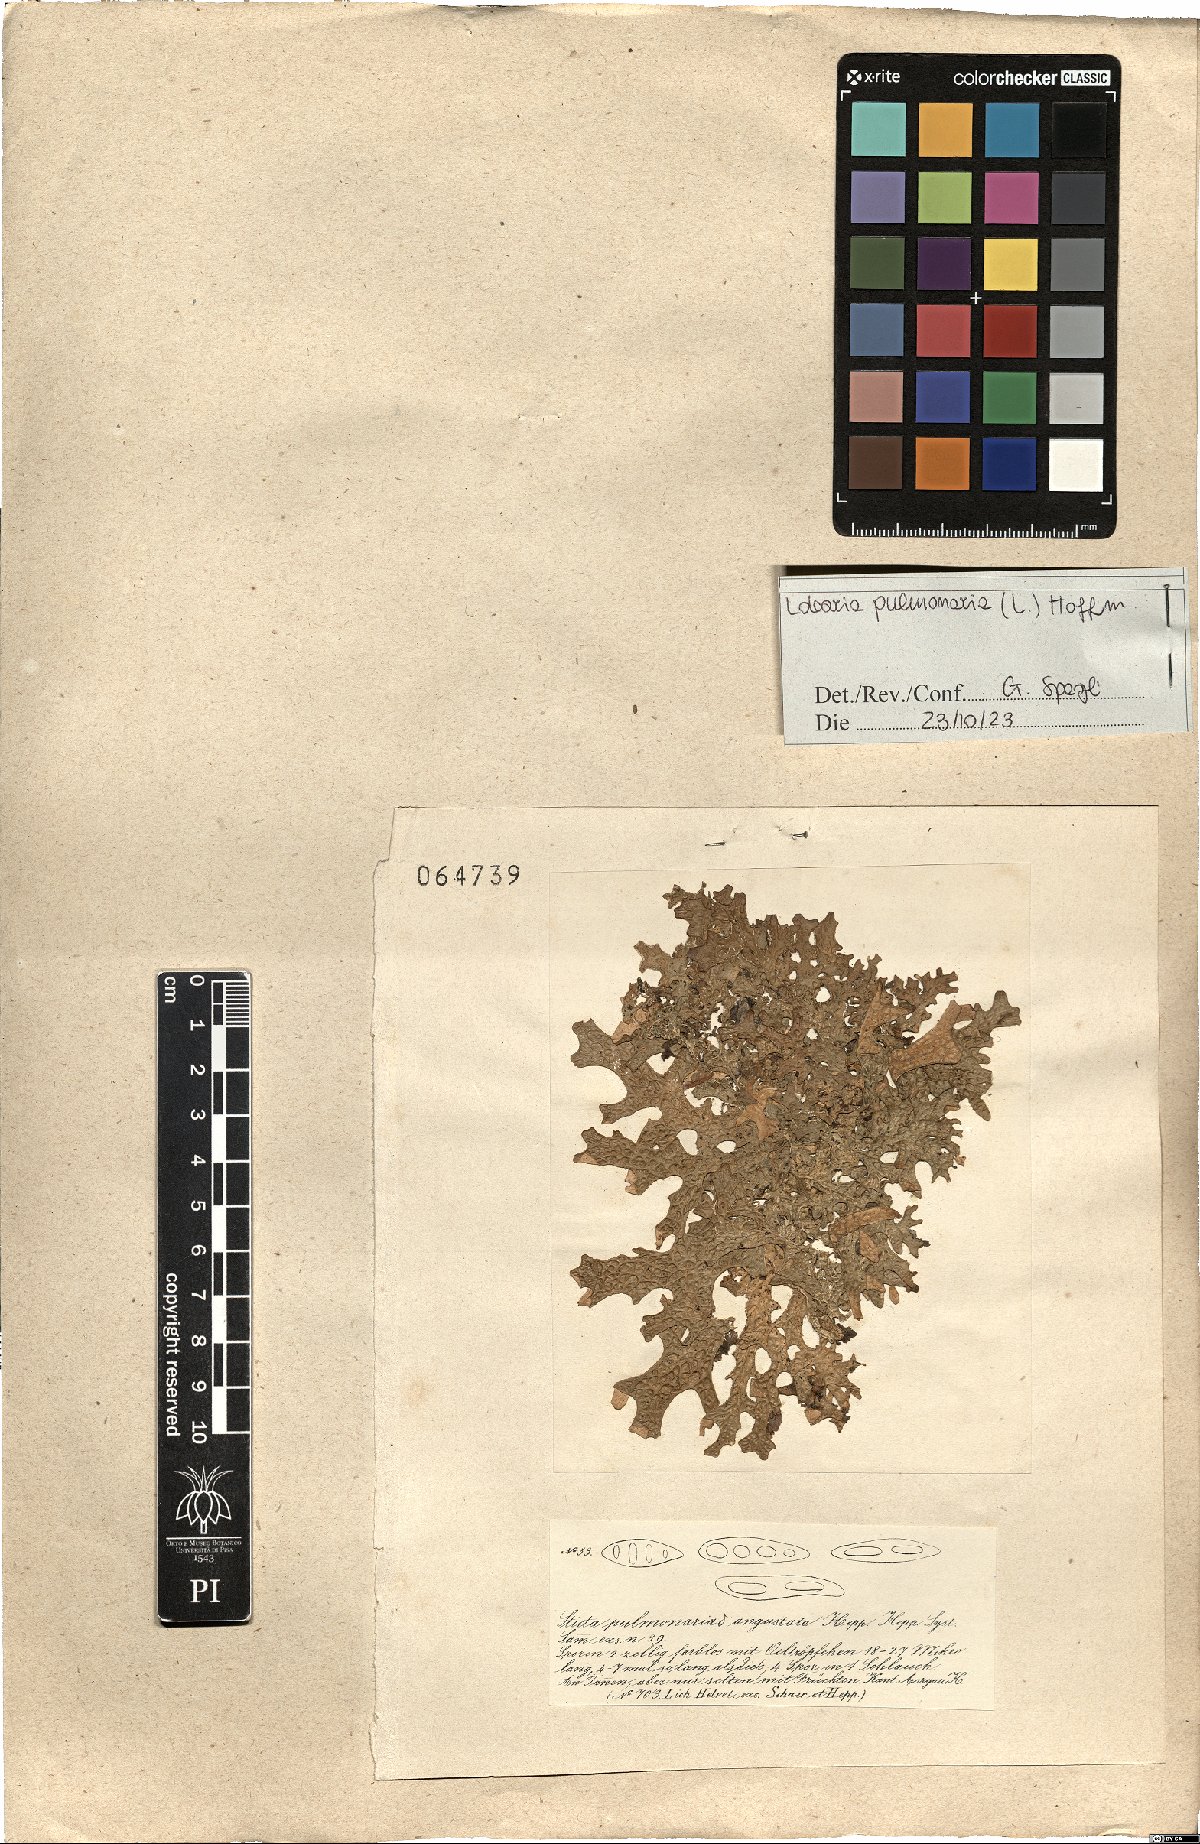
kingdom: Fungi
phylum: Ascomycota
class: Lecanoromycetes
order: Peltigerales
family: Lobariaceae
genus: Lobaria
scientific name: Lobaria pulmonaria
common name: Lungwort
